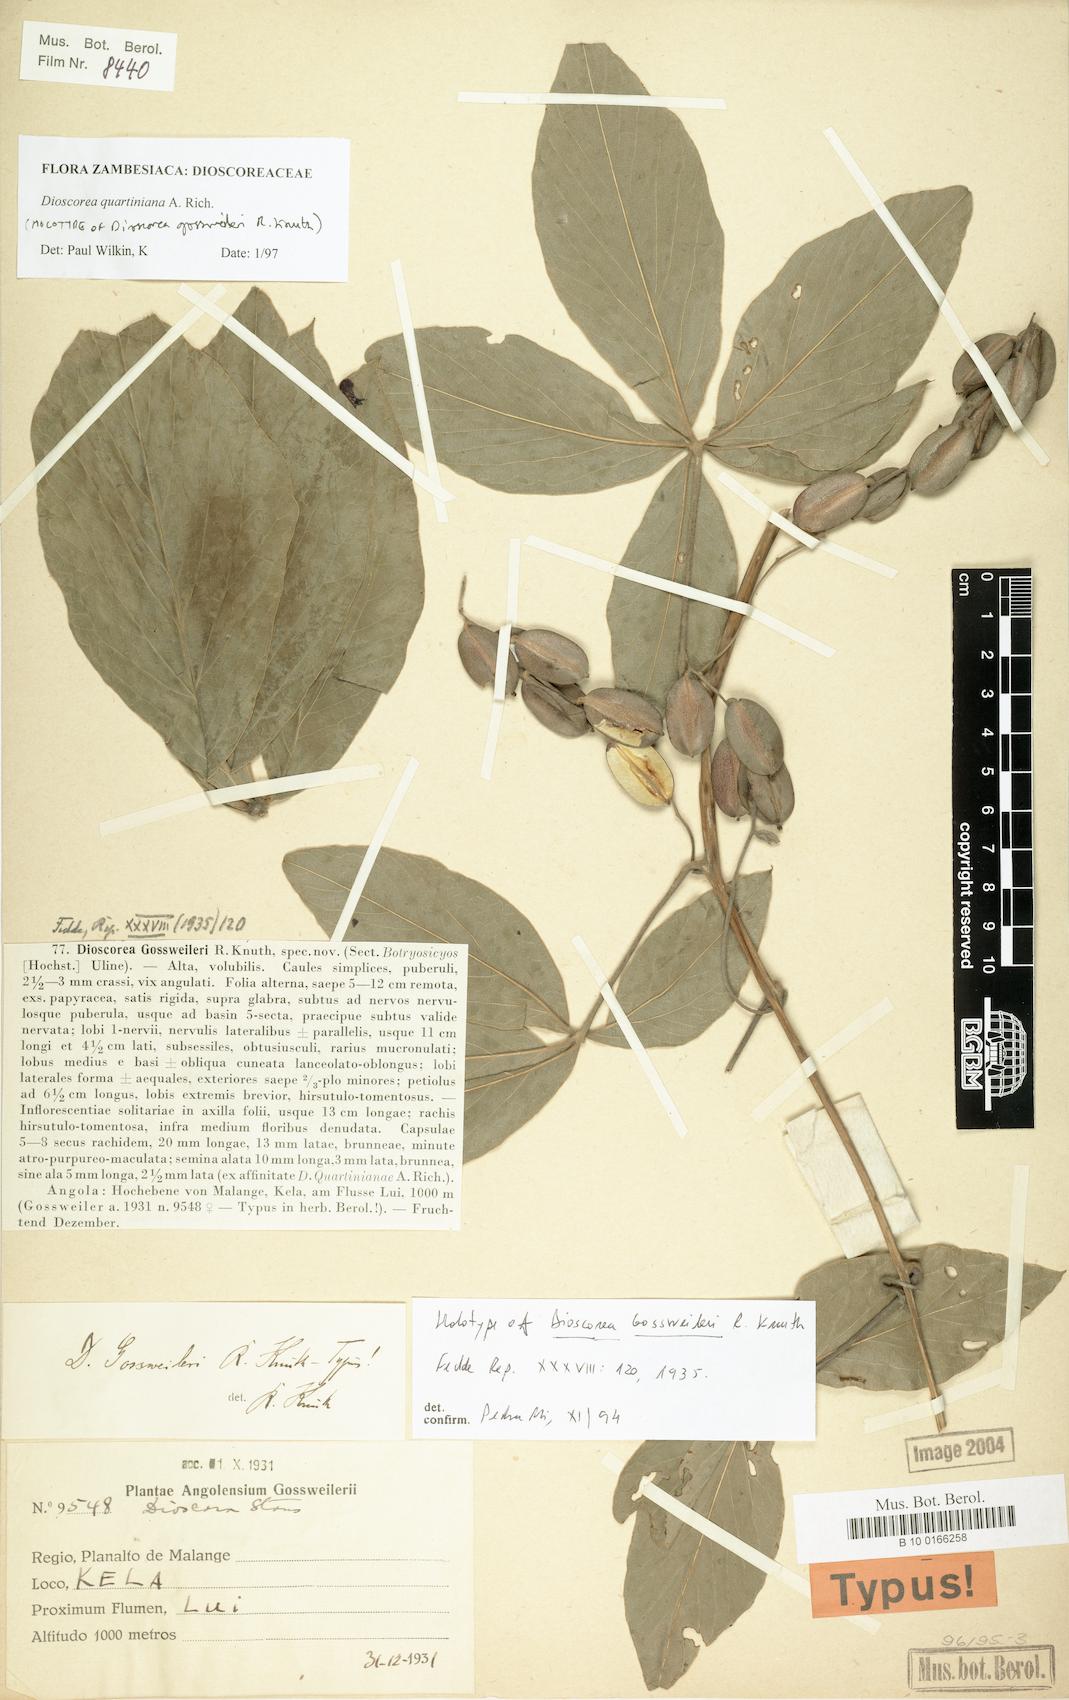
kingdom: Plantae
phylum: Tracheophyta
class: Liliopsida
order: Dioscoreales
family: Dioscoreaceae
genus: Dioscorea
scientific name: Dioscorea quartiniana
